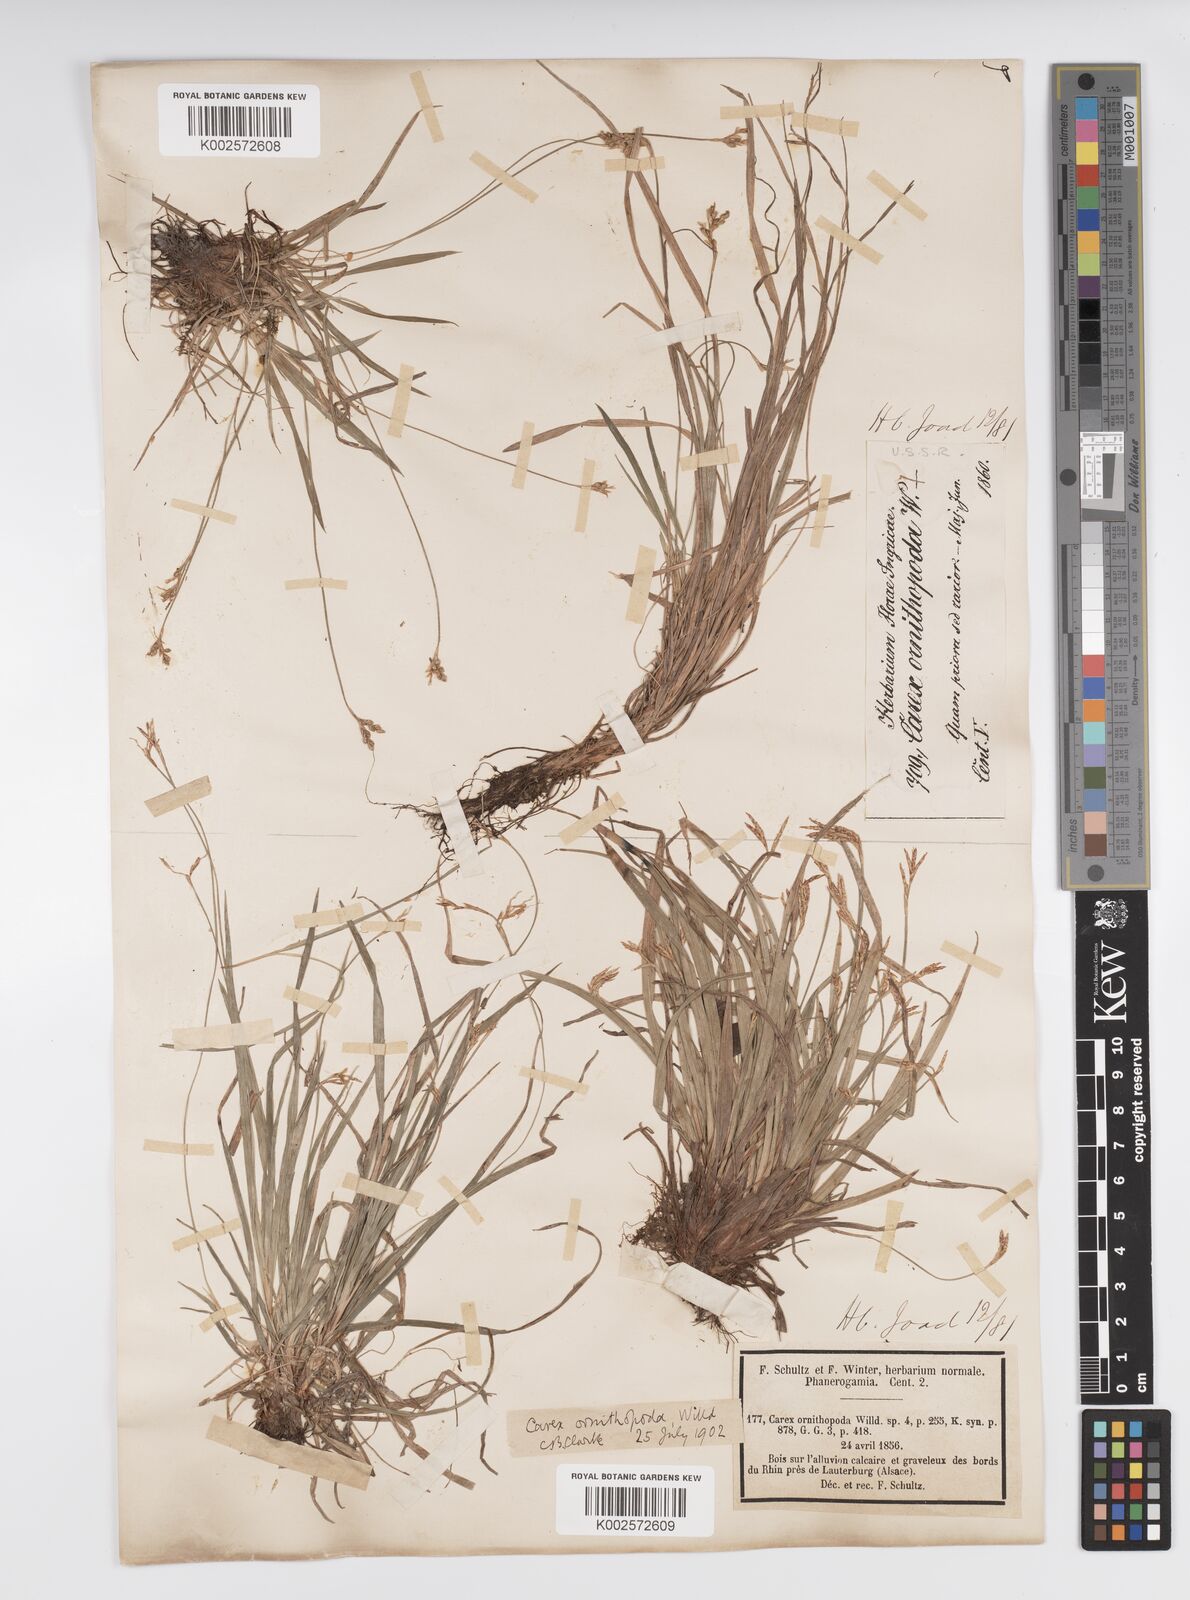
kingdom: Plantae
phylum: Tracheophyta
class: Liliopsida
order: Poales
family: Cyperaceae
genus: Carex
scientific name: Carex ornithopoda
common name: Bird's-foot sedge
